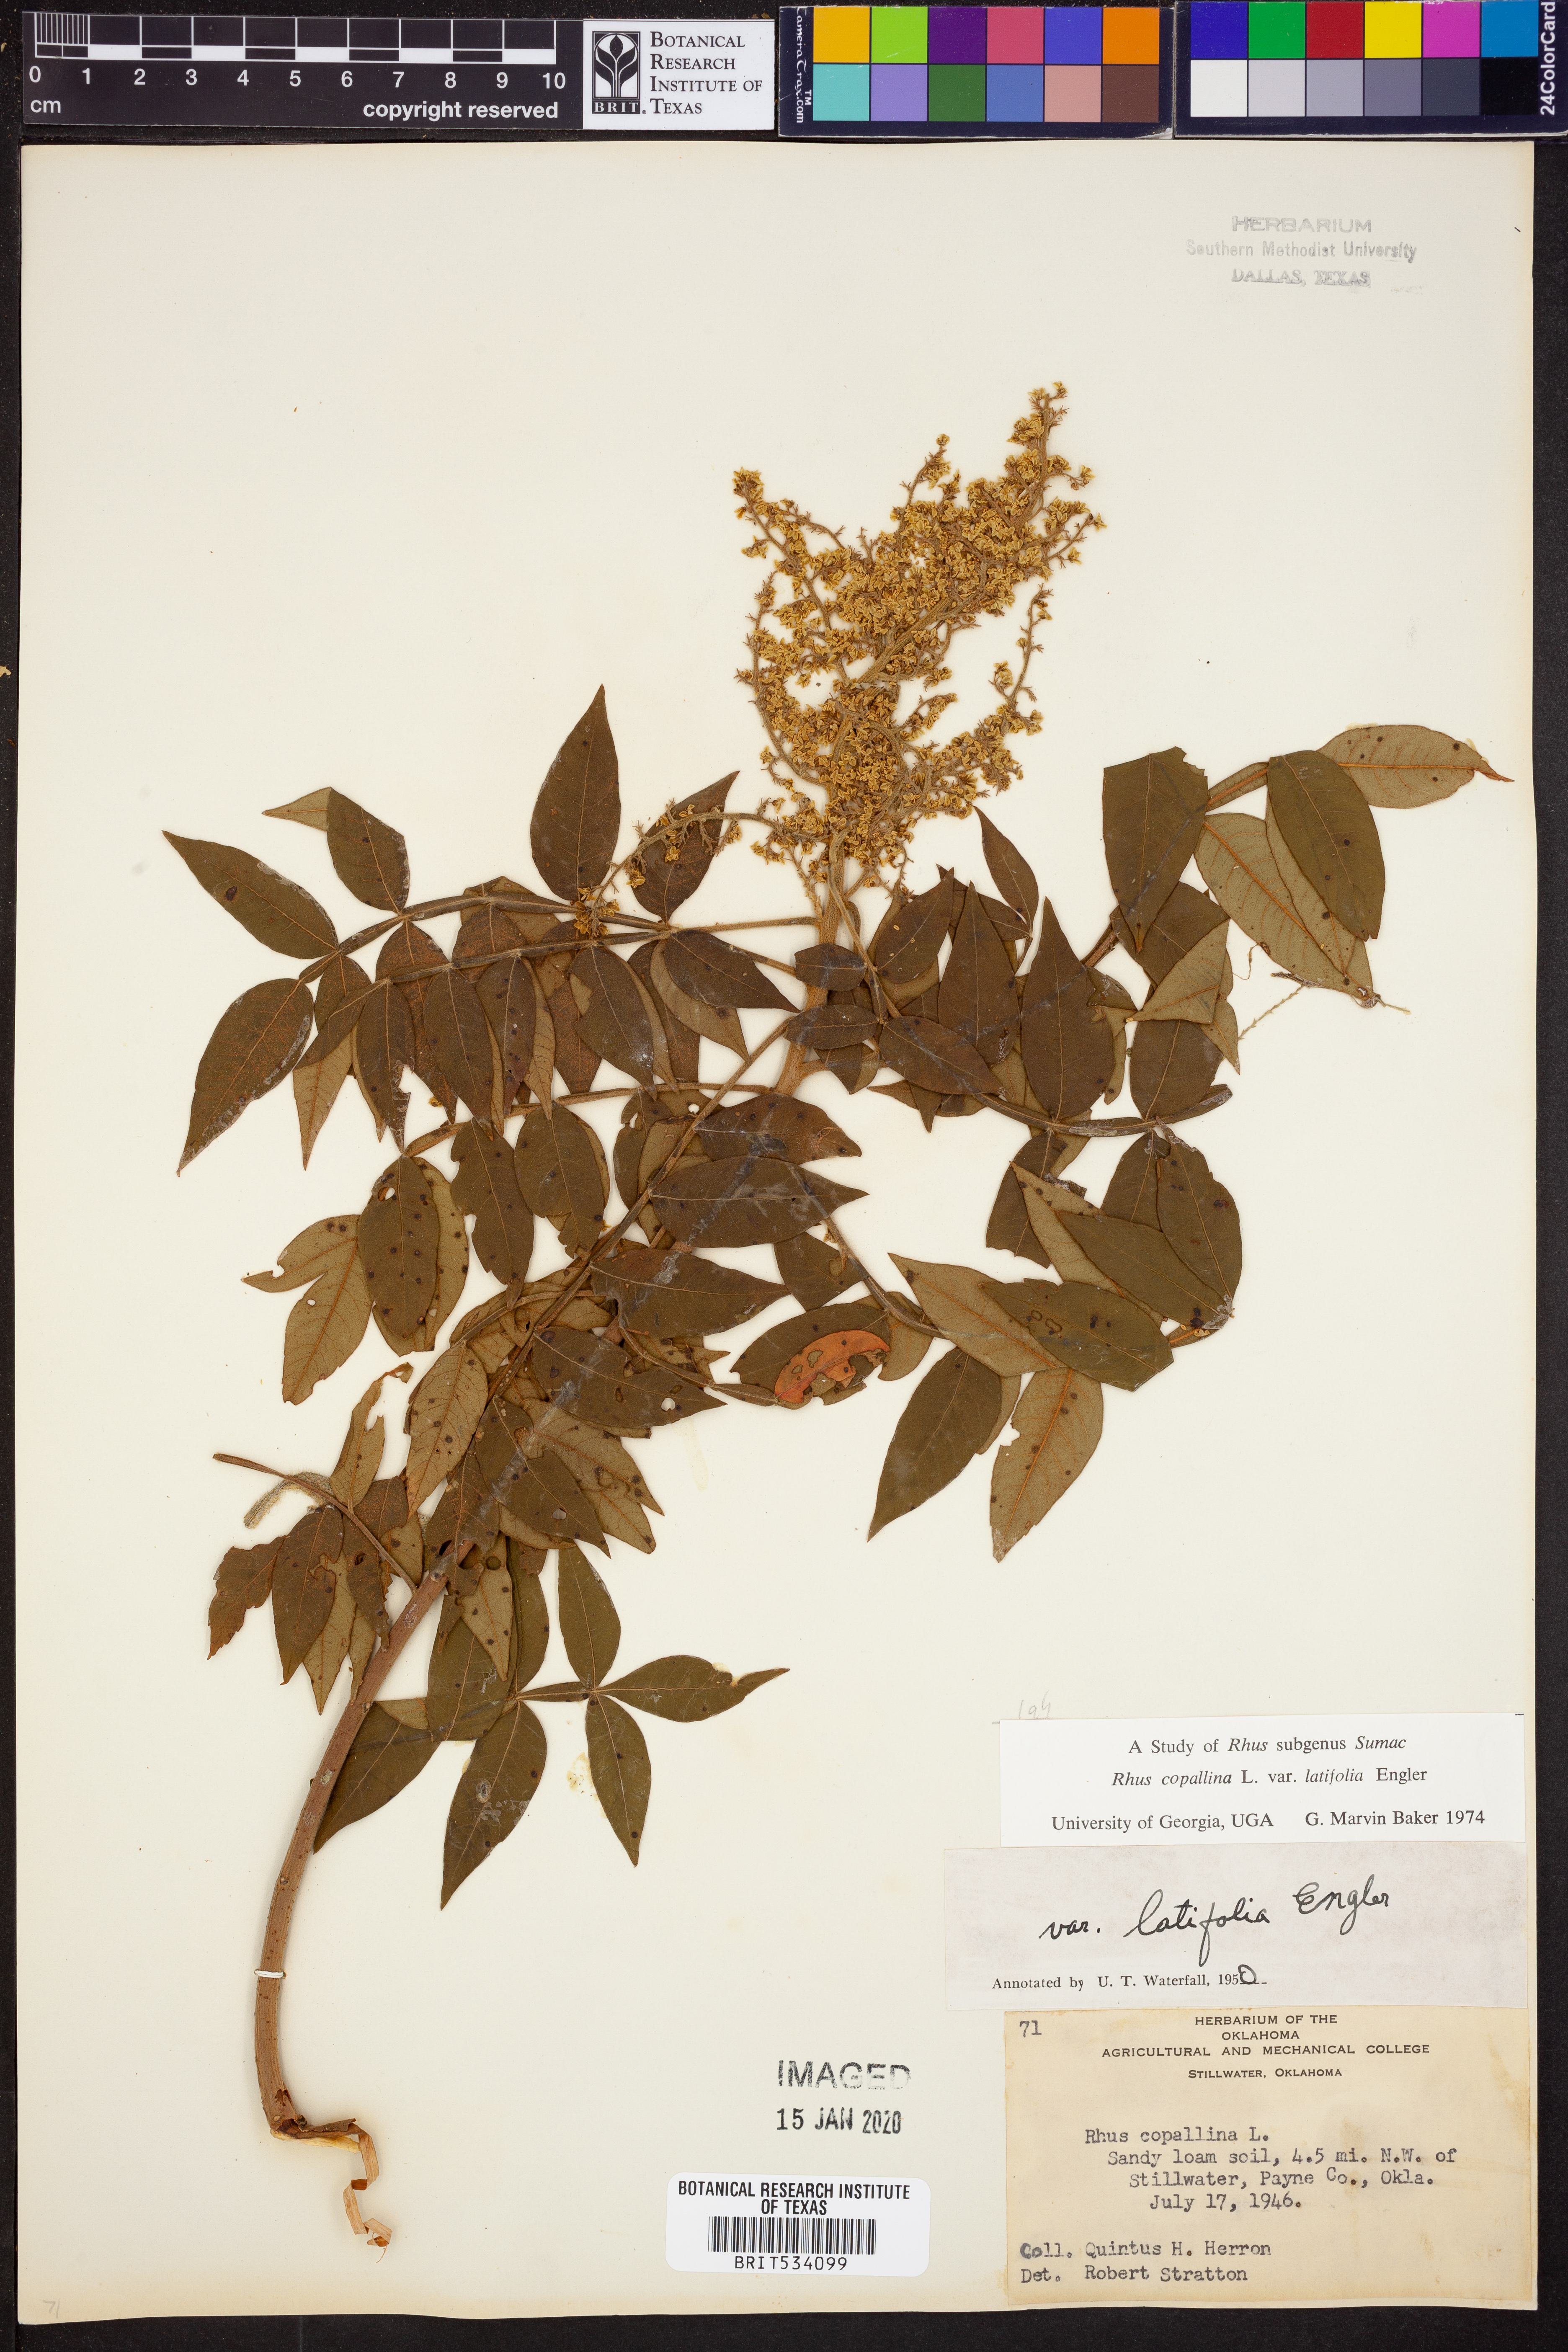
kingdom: Plantae
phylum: Tracheophyta
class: Magnoliopsida
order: Sapindales
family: Anacardiaceae
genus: Rhus
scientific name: Rhus copallina
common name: Shining sumac
